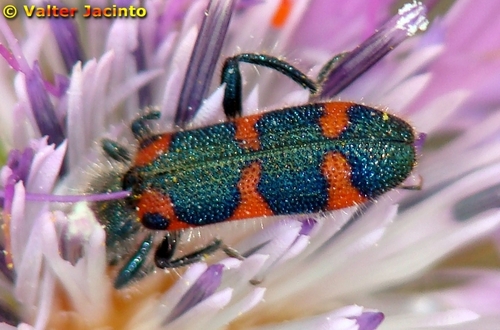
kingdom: Animalia
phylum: Arthropoda
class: Insecta
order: Coleoptera
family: Cleridae
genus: Trichodes
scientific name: Trichodes leucopsideus
